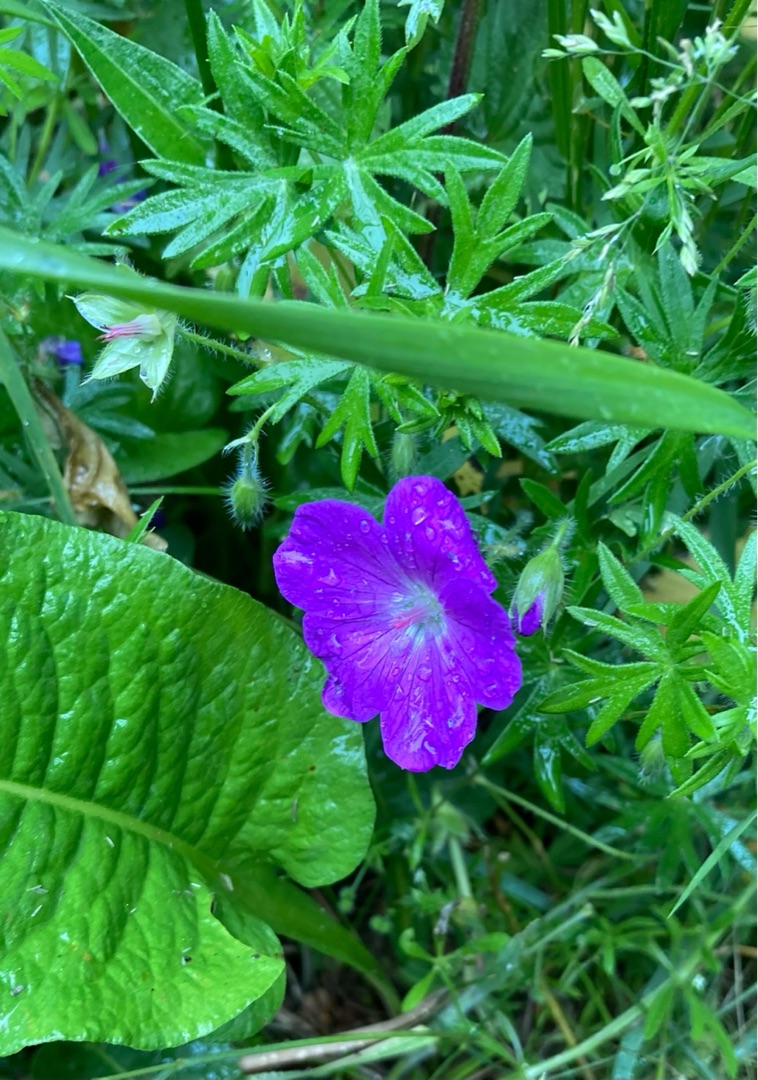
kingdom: Plantae
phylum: Tracheophyta
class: Magnoliopsida
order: Geraniales
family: Geraniaceae
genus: Geranium
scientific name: Geranium sanguineum
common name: Blodrød storkenæb
